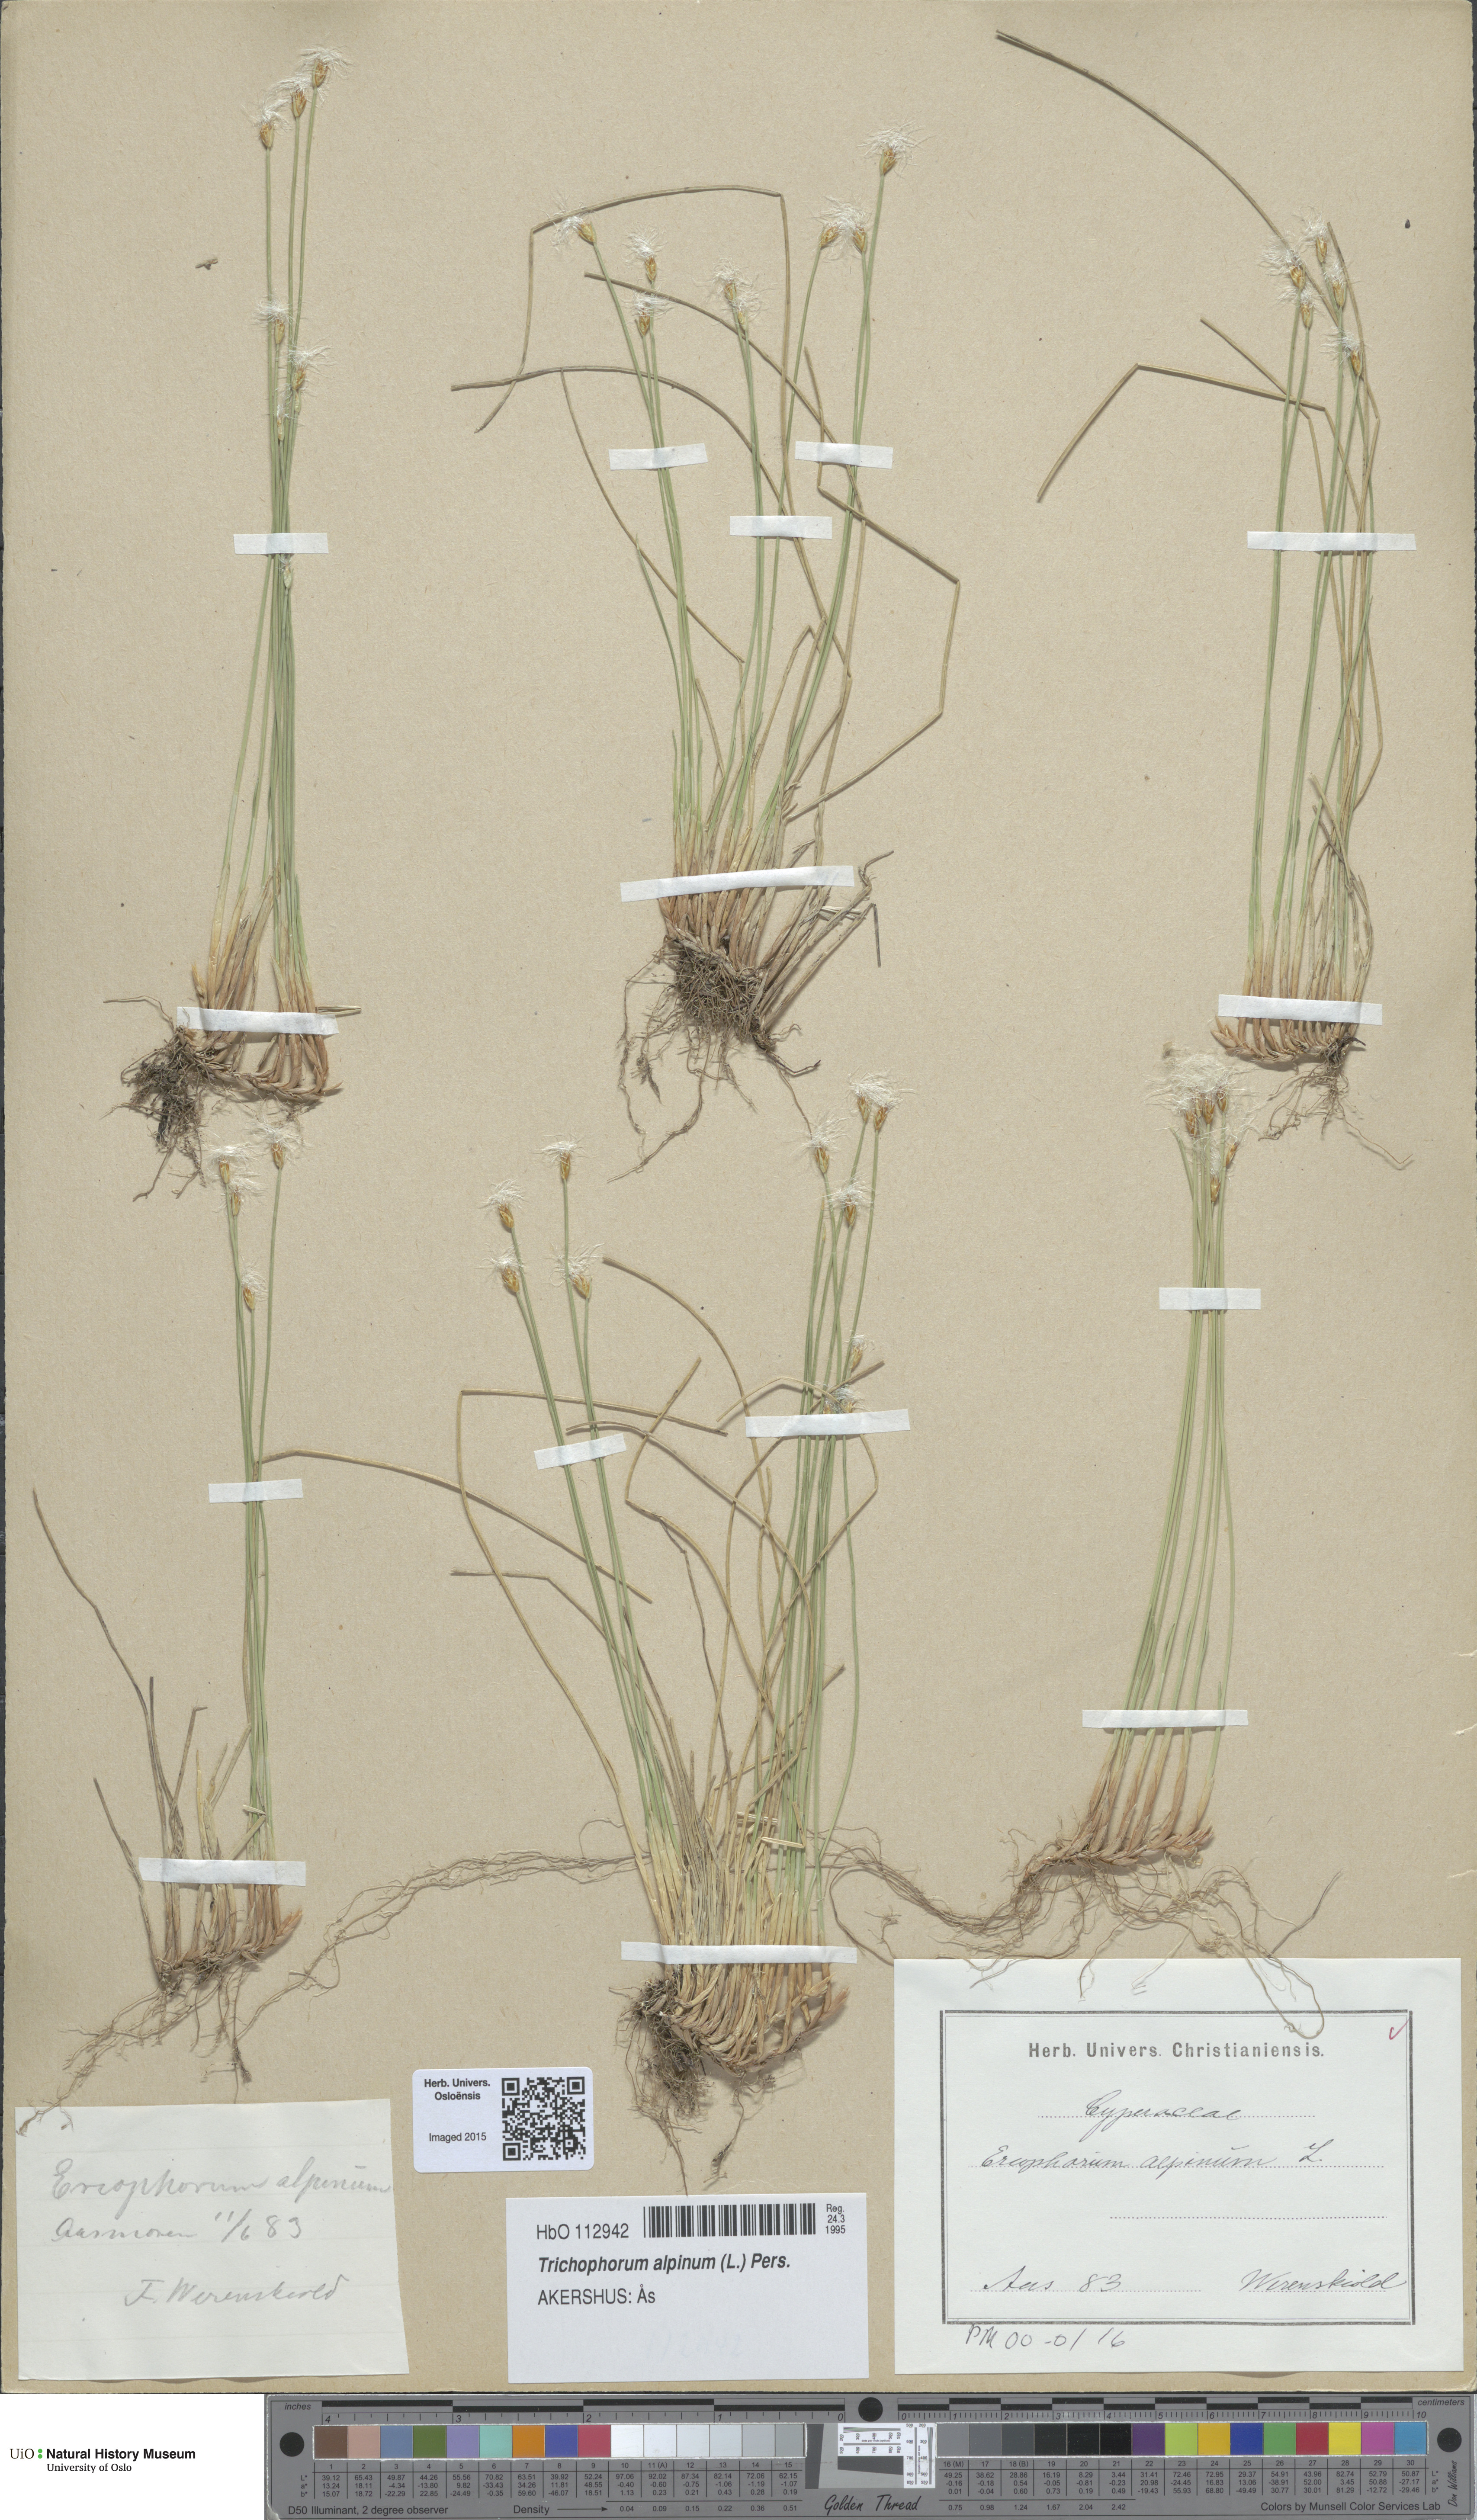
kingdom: Plantae
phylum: Tracheophyta
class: Liliopsida
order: Poales
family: Cyperaceae
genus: Trichophorum
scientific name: Trichophorum alpinum
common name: Alpine bulrush
